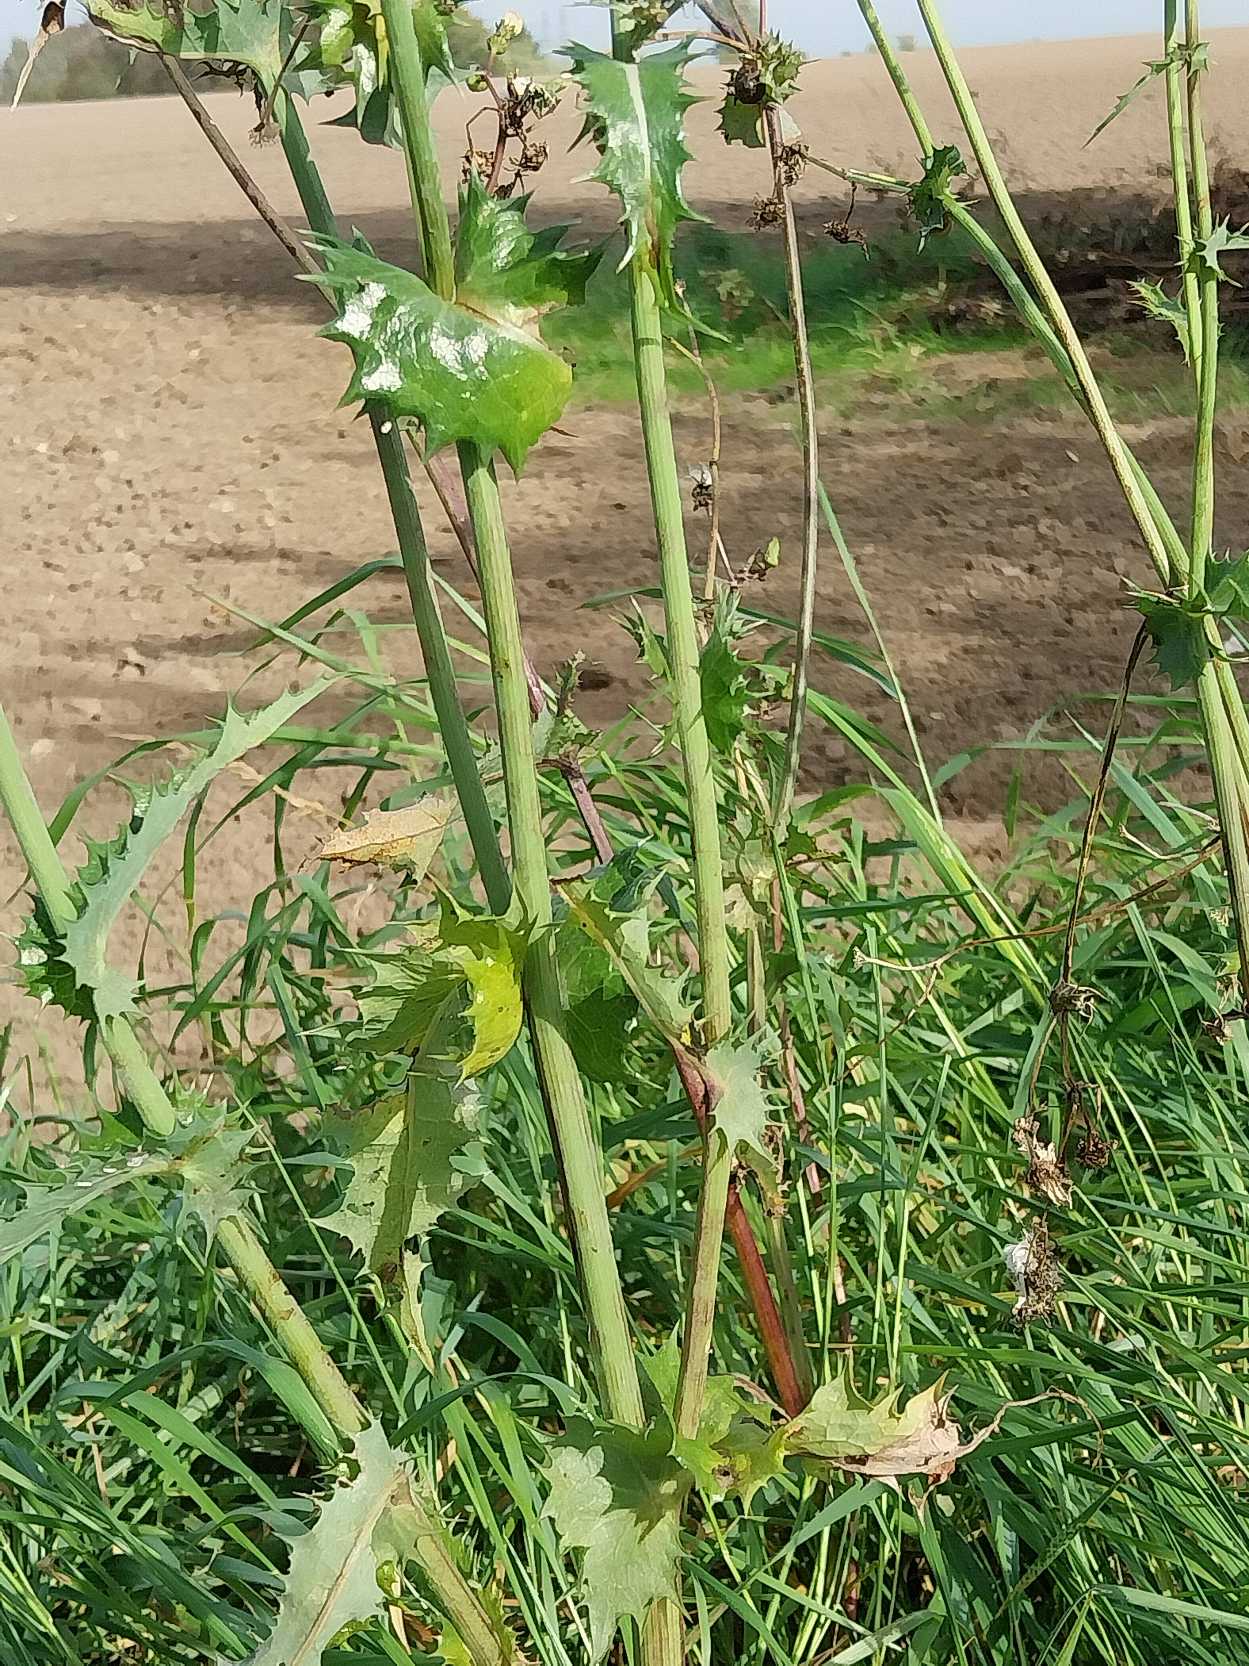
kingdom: Plantae
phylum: Tracheophyta
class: Magnoliopsida
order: Asterales
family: Asteraceae
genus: Sonchus
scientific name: Sonchus asper
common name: Ru svinemælk
